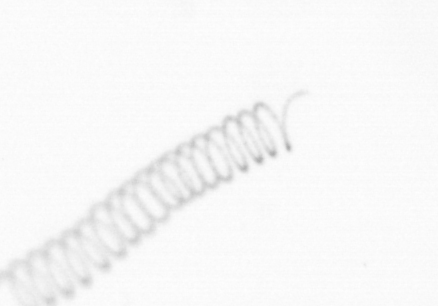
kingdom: Chromista
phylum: Ochrophyta
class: Bacillariophyceae
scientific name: Bacillariophyceae
